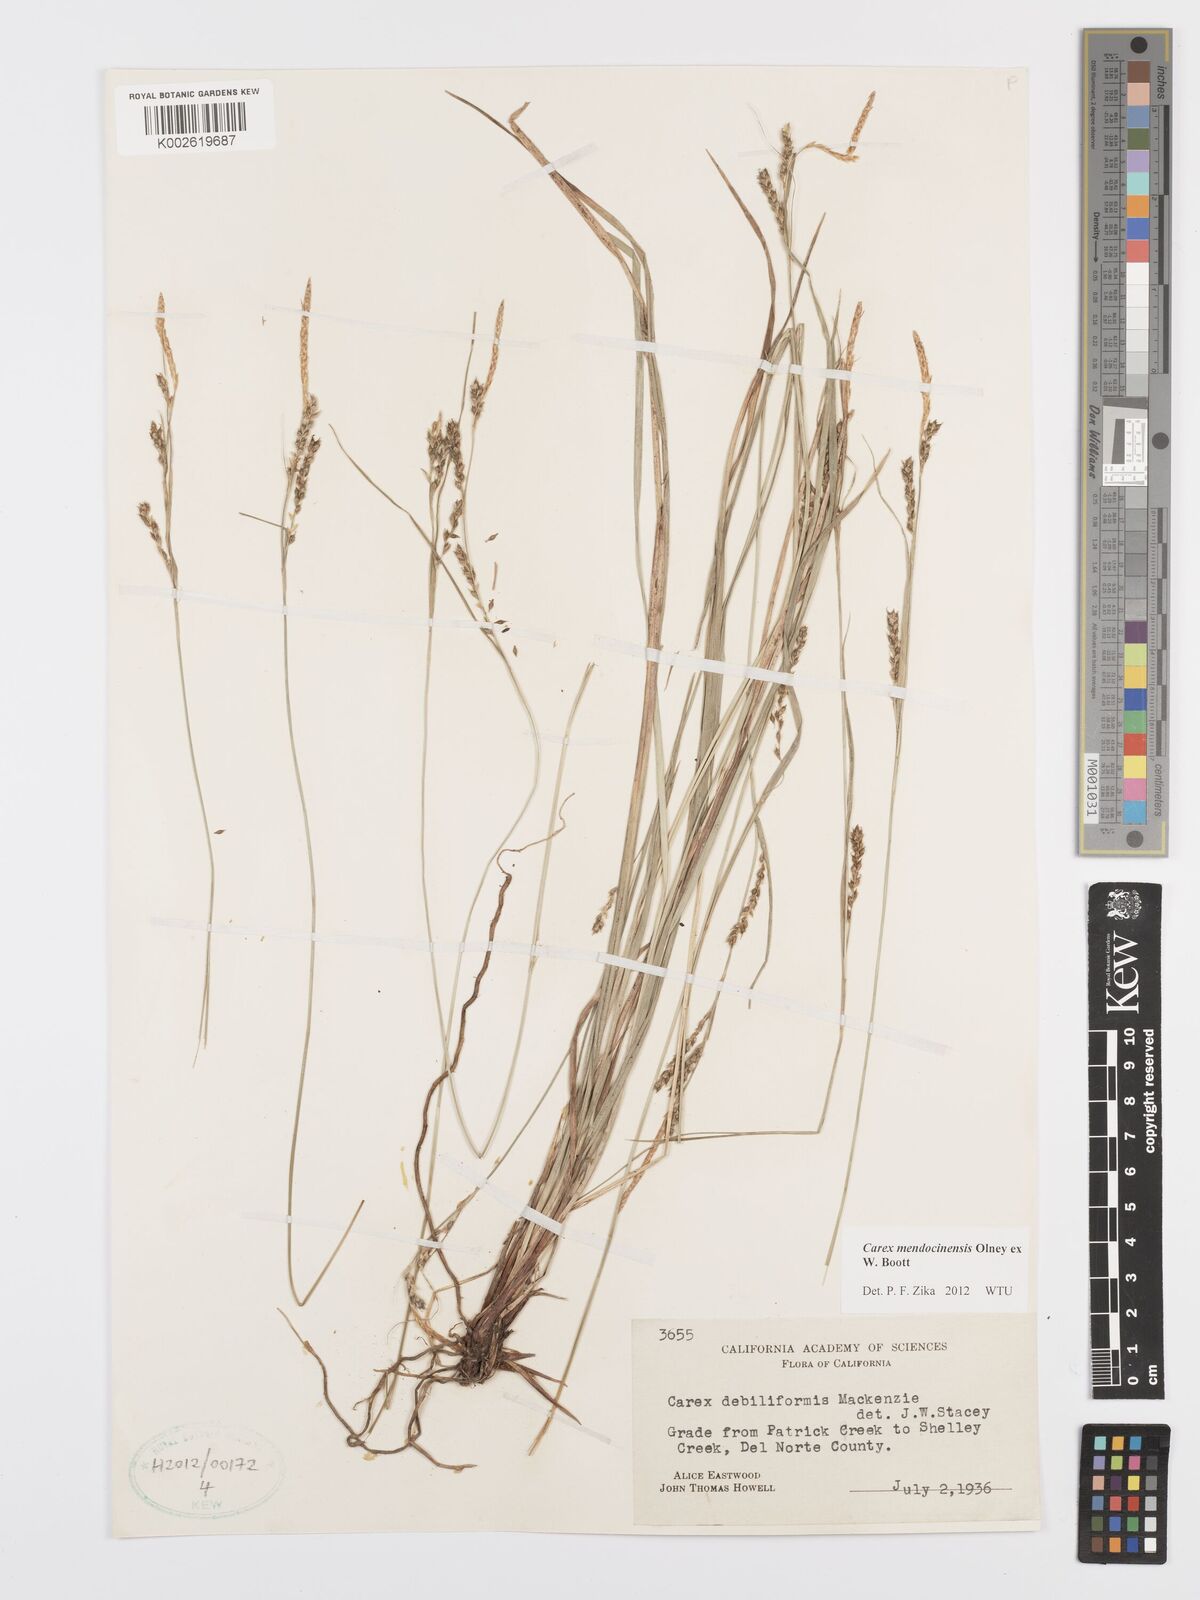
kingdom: Plantae
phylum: Tracheophyta
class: Liliopsida
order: Poales
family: Cyperaceae
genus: Carex
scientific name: Carex mendocinensis
